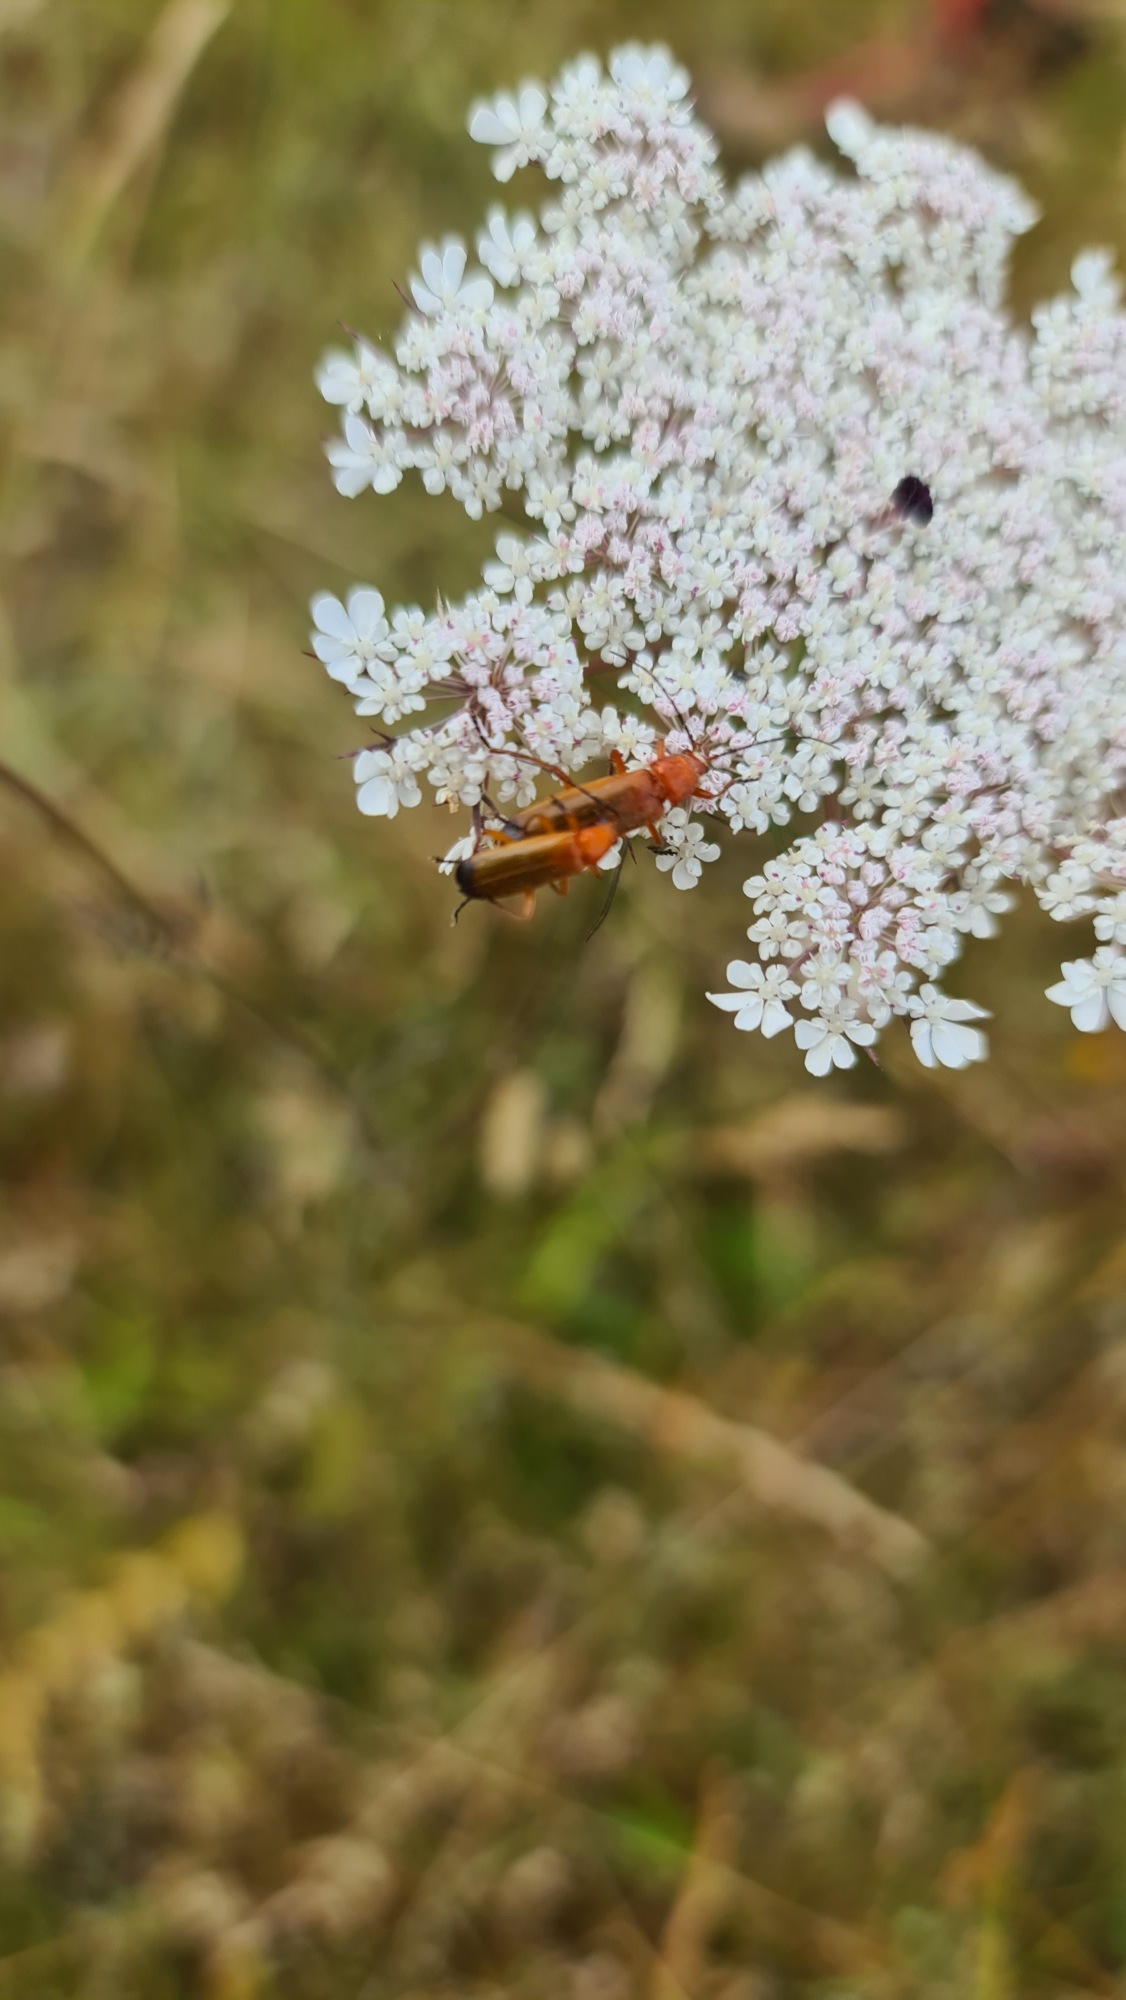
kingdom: Animalia
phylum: Arthropoda
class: Insecta
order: Coleoptera
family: Cantharidae
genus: Rhagonycha
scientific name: Rhagonycha fulva
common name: Præstebille
